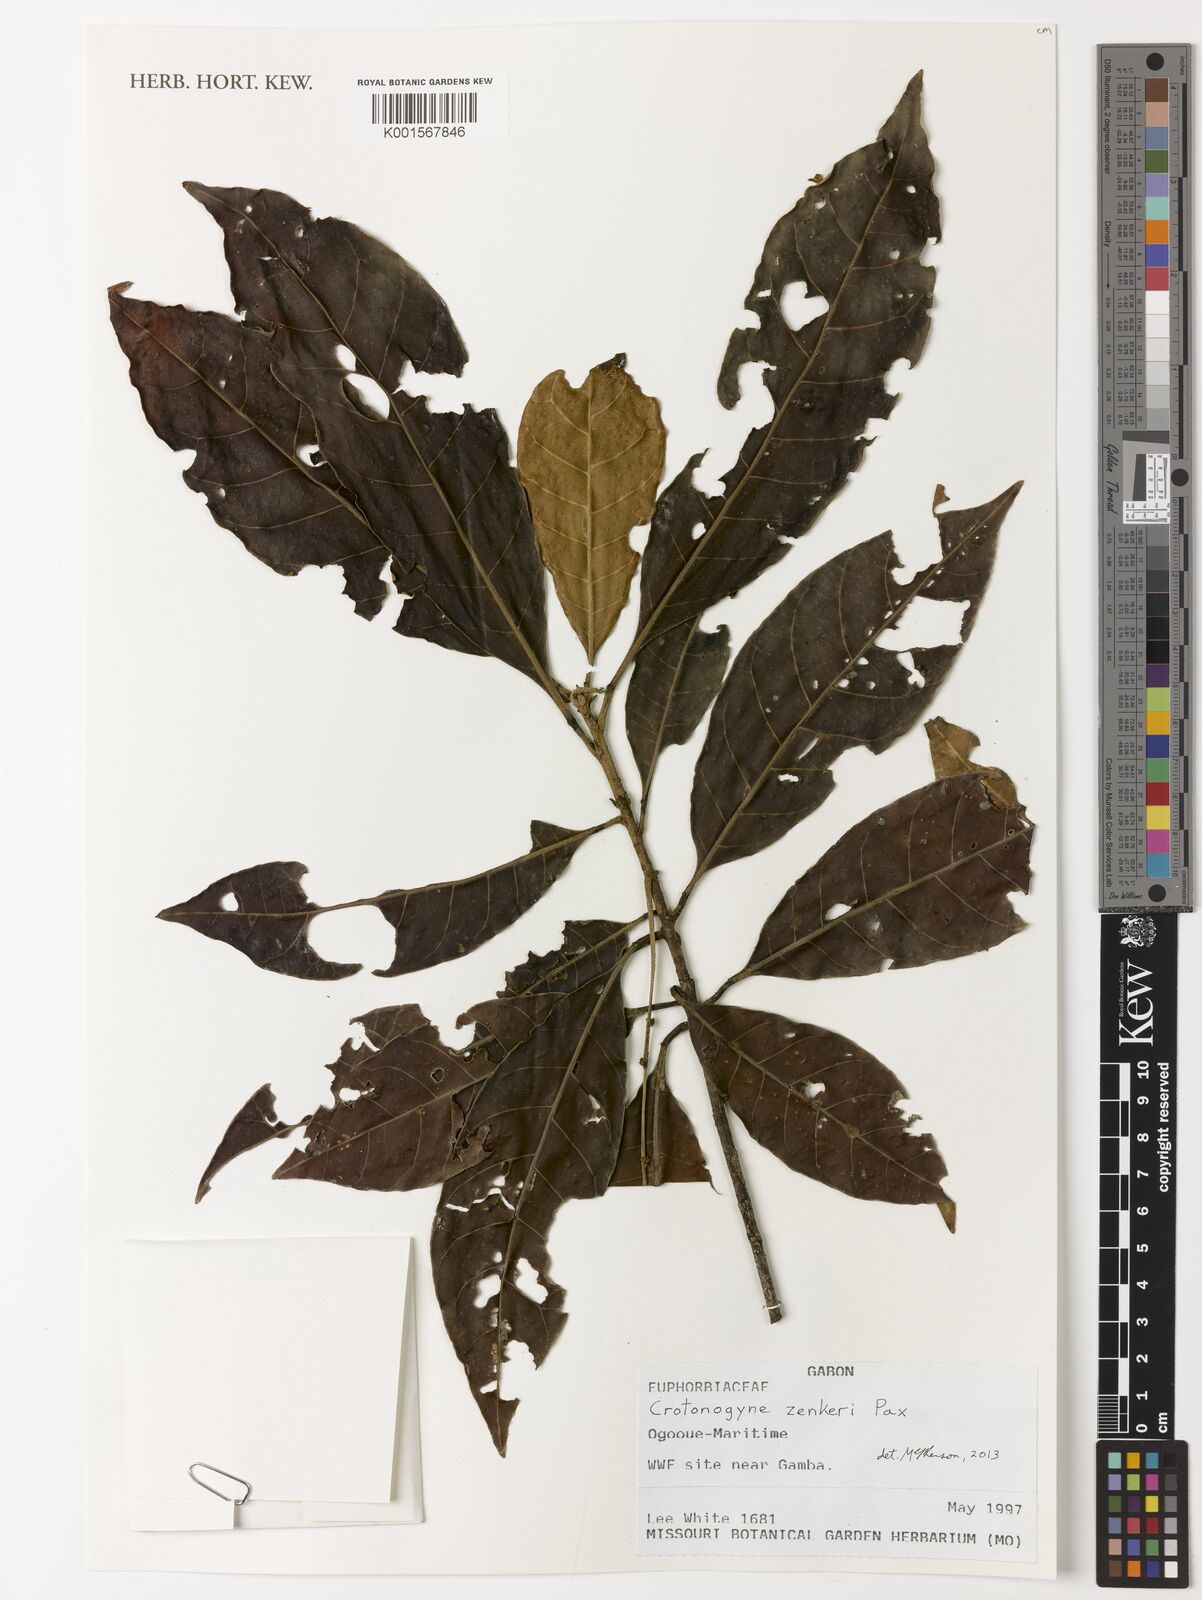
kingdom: Plantae
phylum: Tracheophyta
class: Magnoliopsida
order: Malpighiales
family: Euphorbiaceae
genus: Crotonogyne
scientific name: Crotonogyne zenkeri
